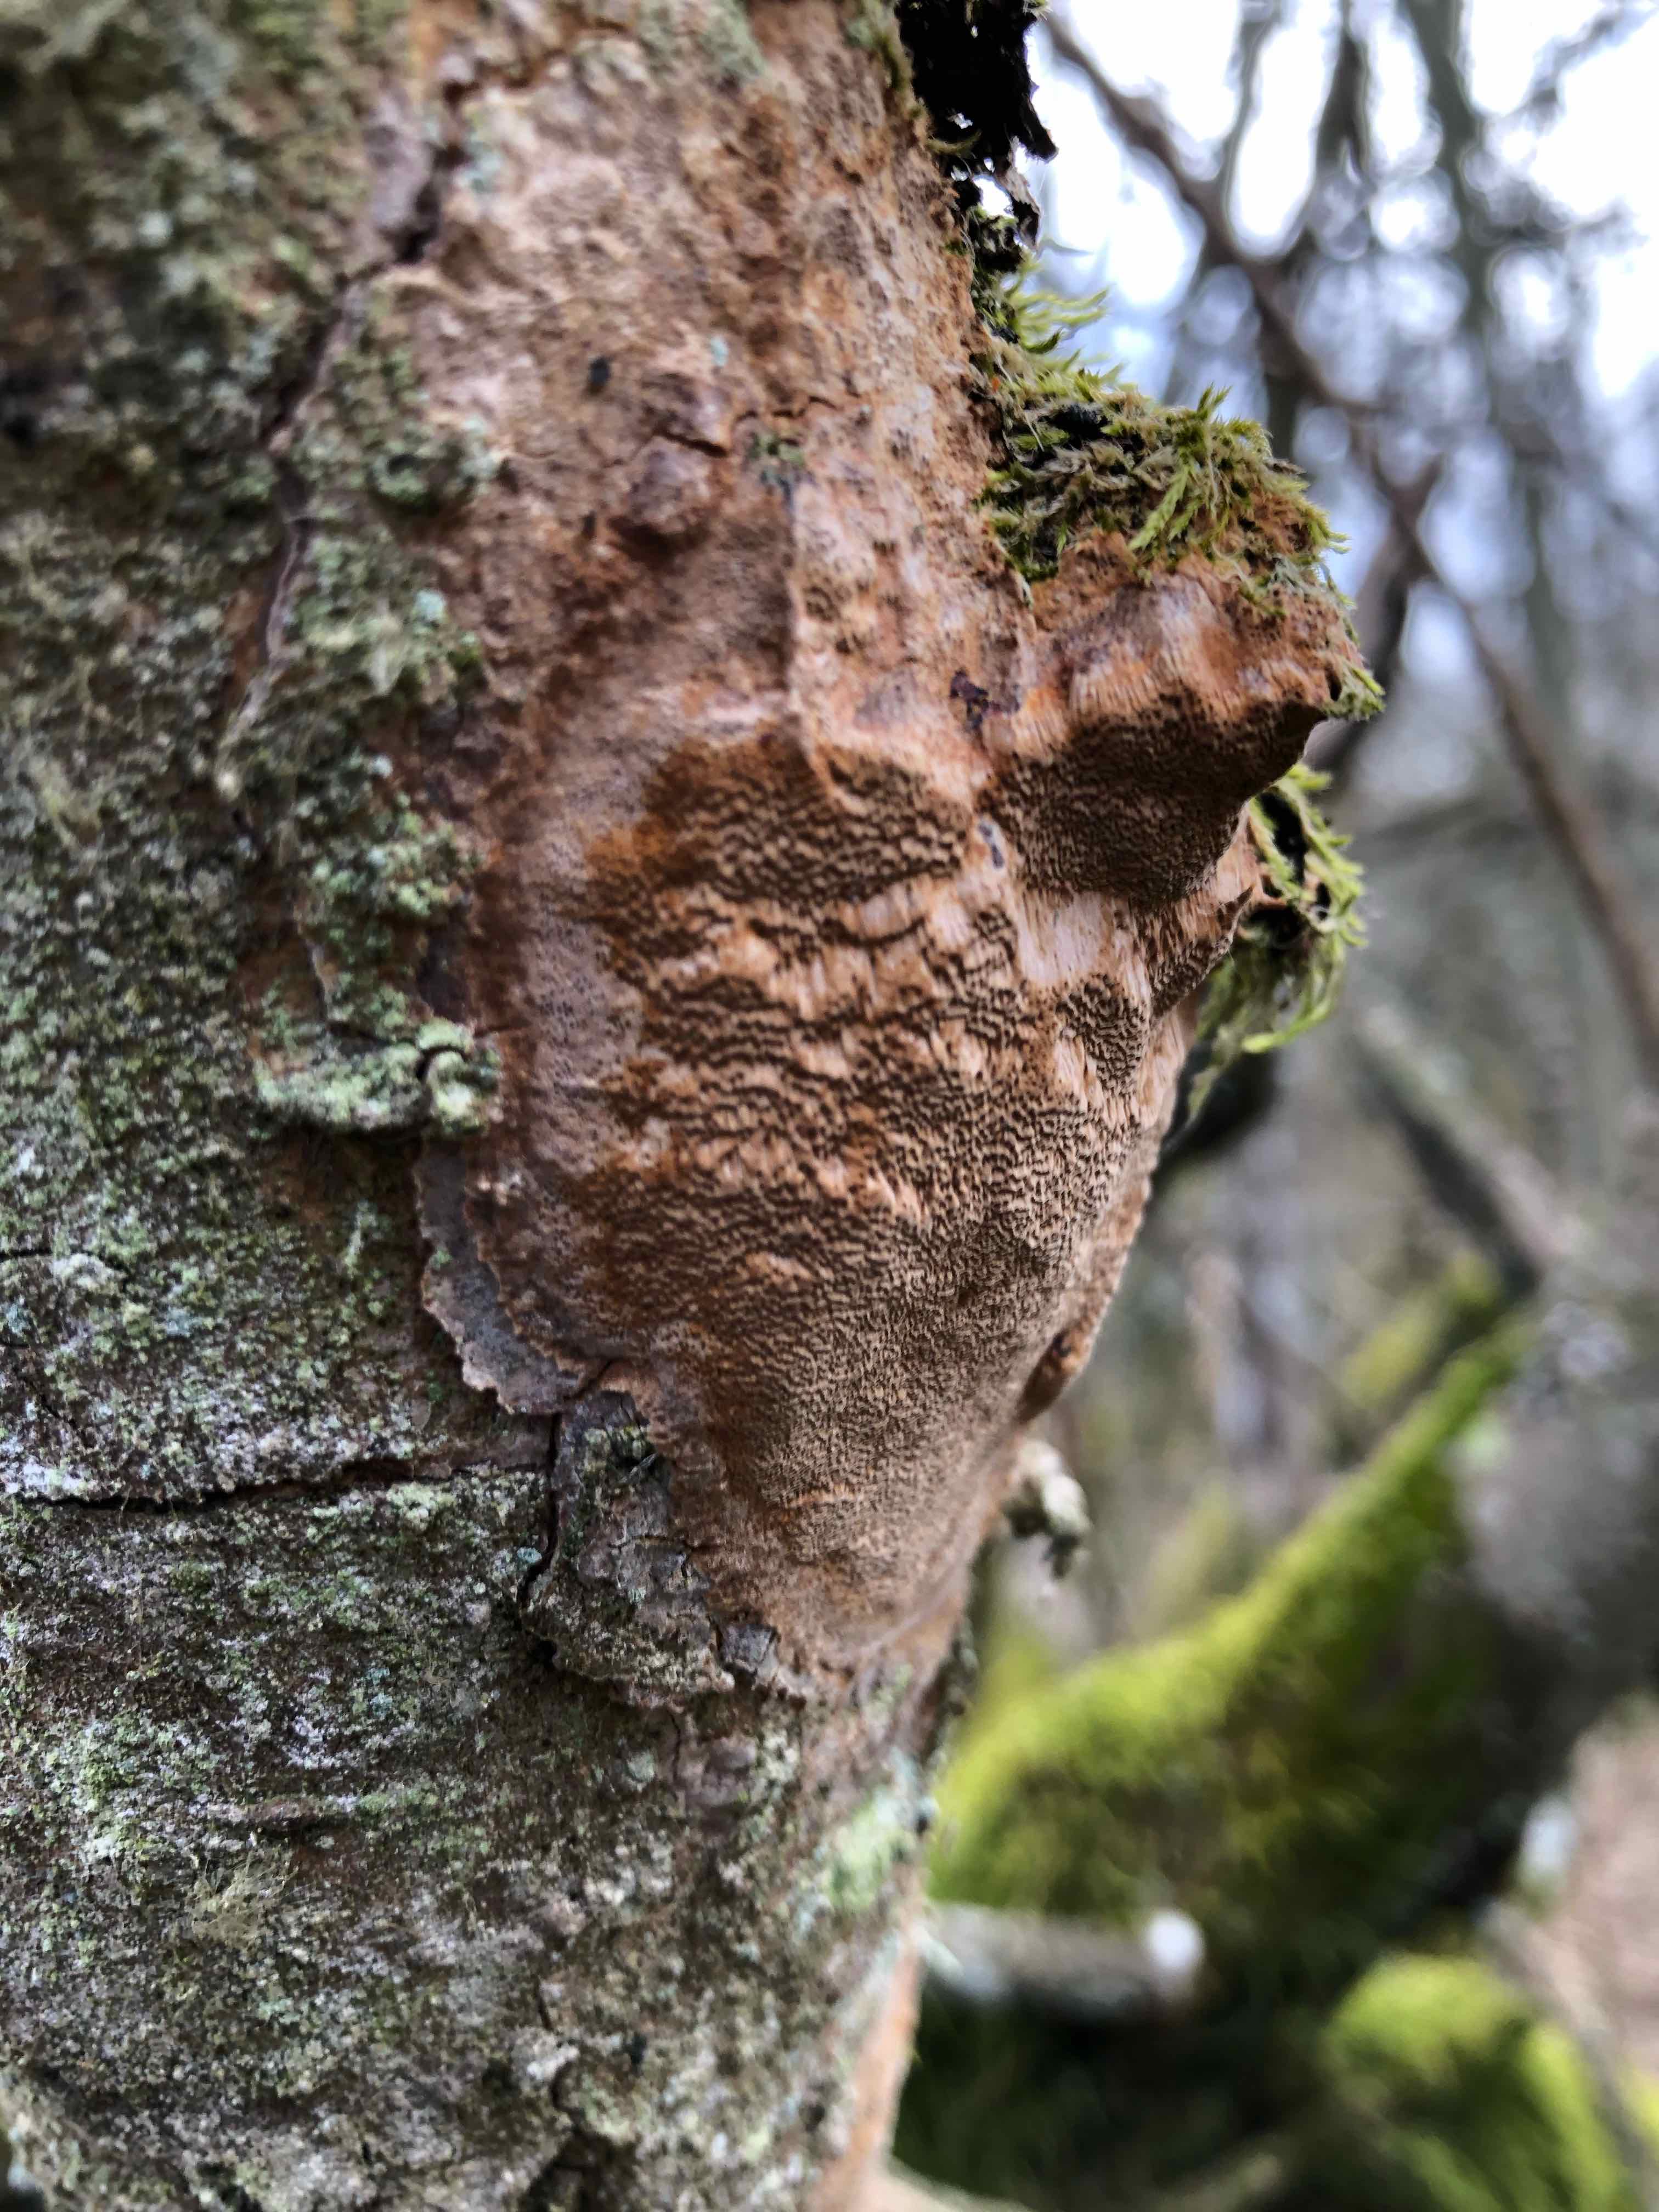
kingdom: Fungi
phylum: Basidiomycota
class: Agaricomycetes
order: Hymenochaetales
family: Hymenochaetaceae
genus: Fomitiporia
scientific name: Fomitiporia punctata
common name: pude-ildporesvamp
